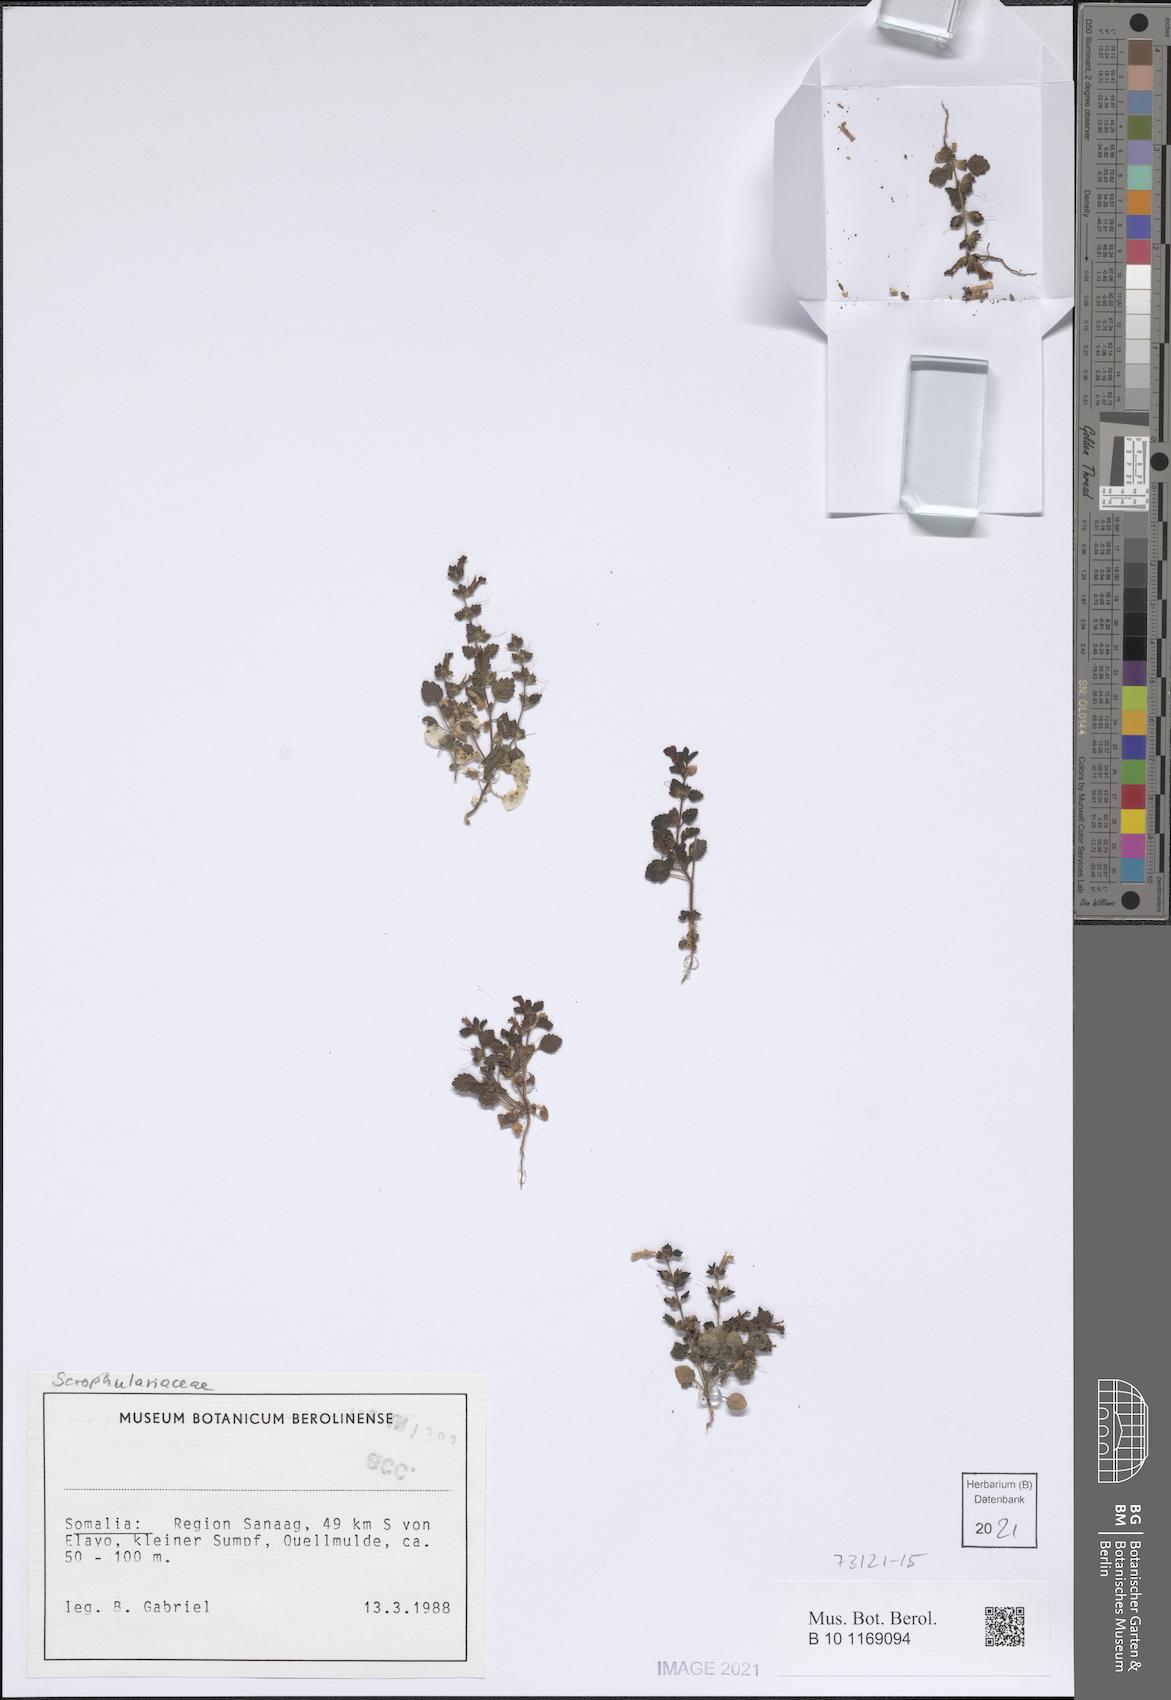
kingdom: Plantae
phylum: Tracheophyta
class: Magnoliopsida
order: Lamiales
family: Scrophulariaceae
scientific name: Scrophulariaceae
